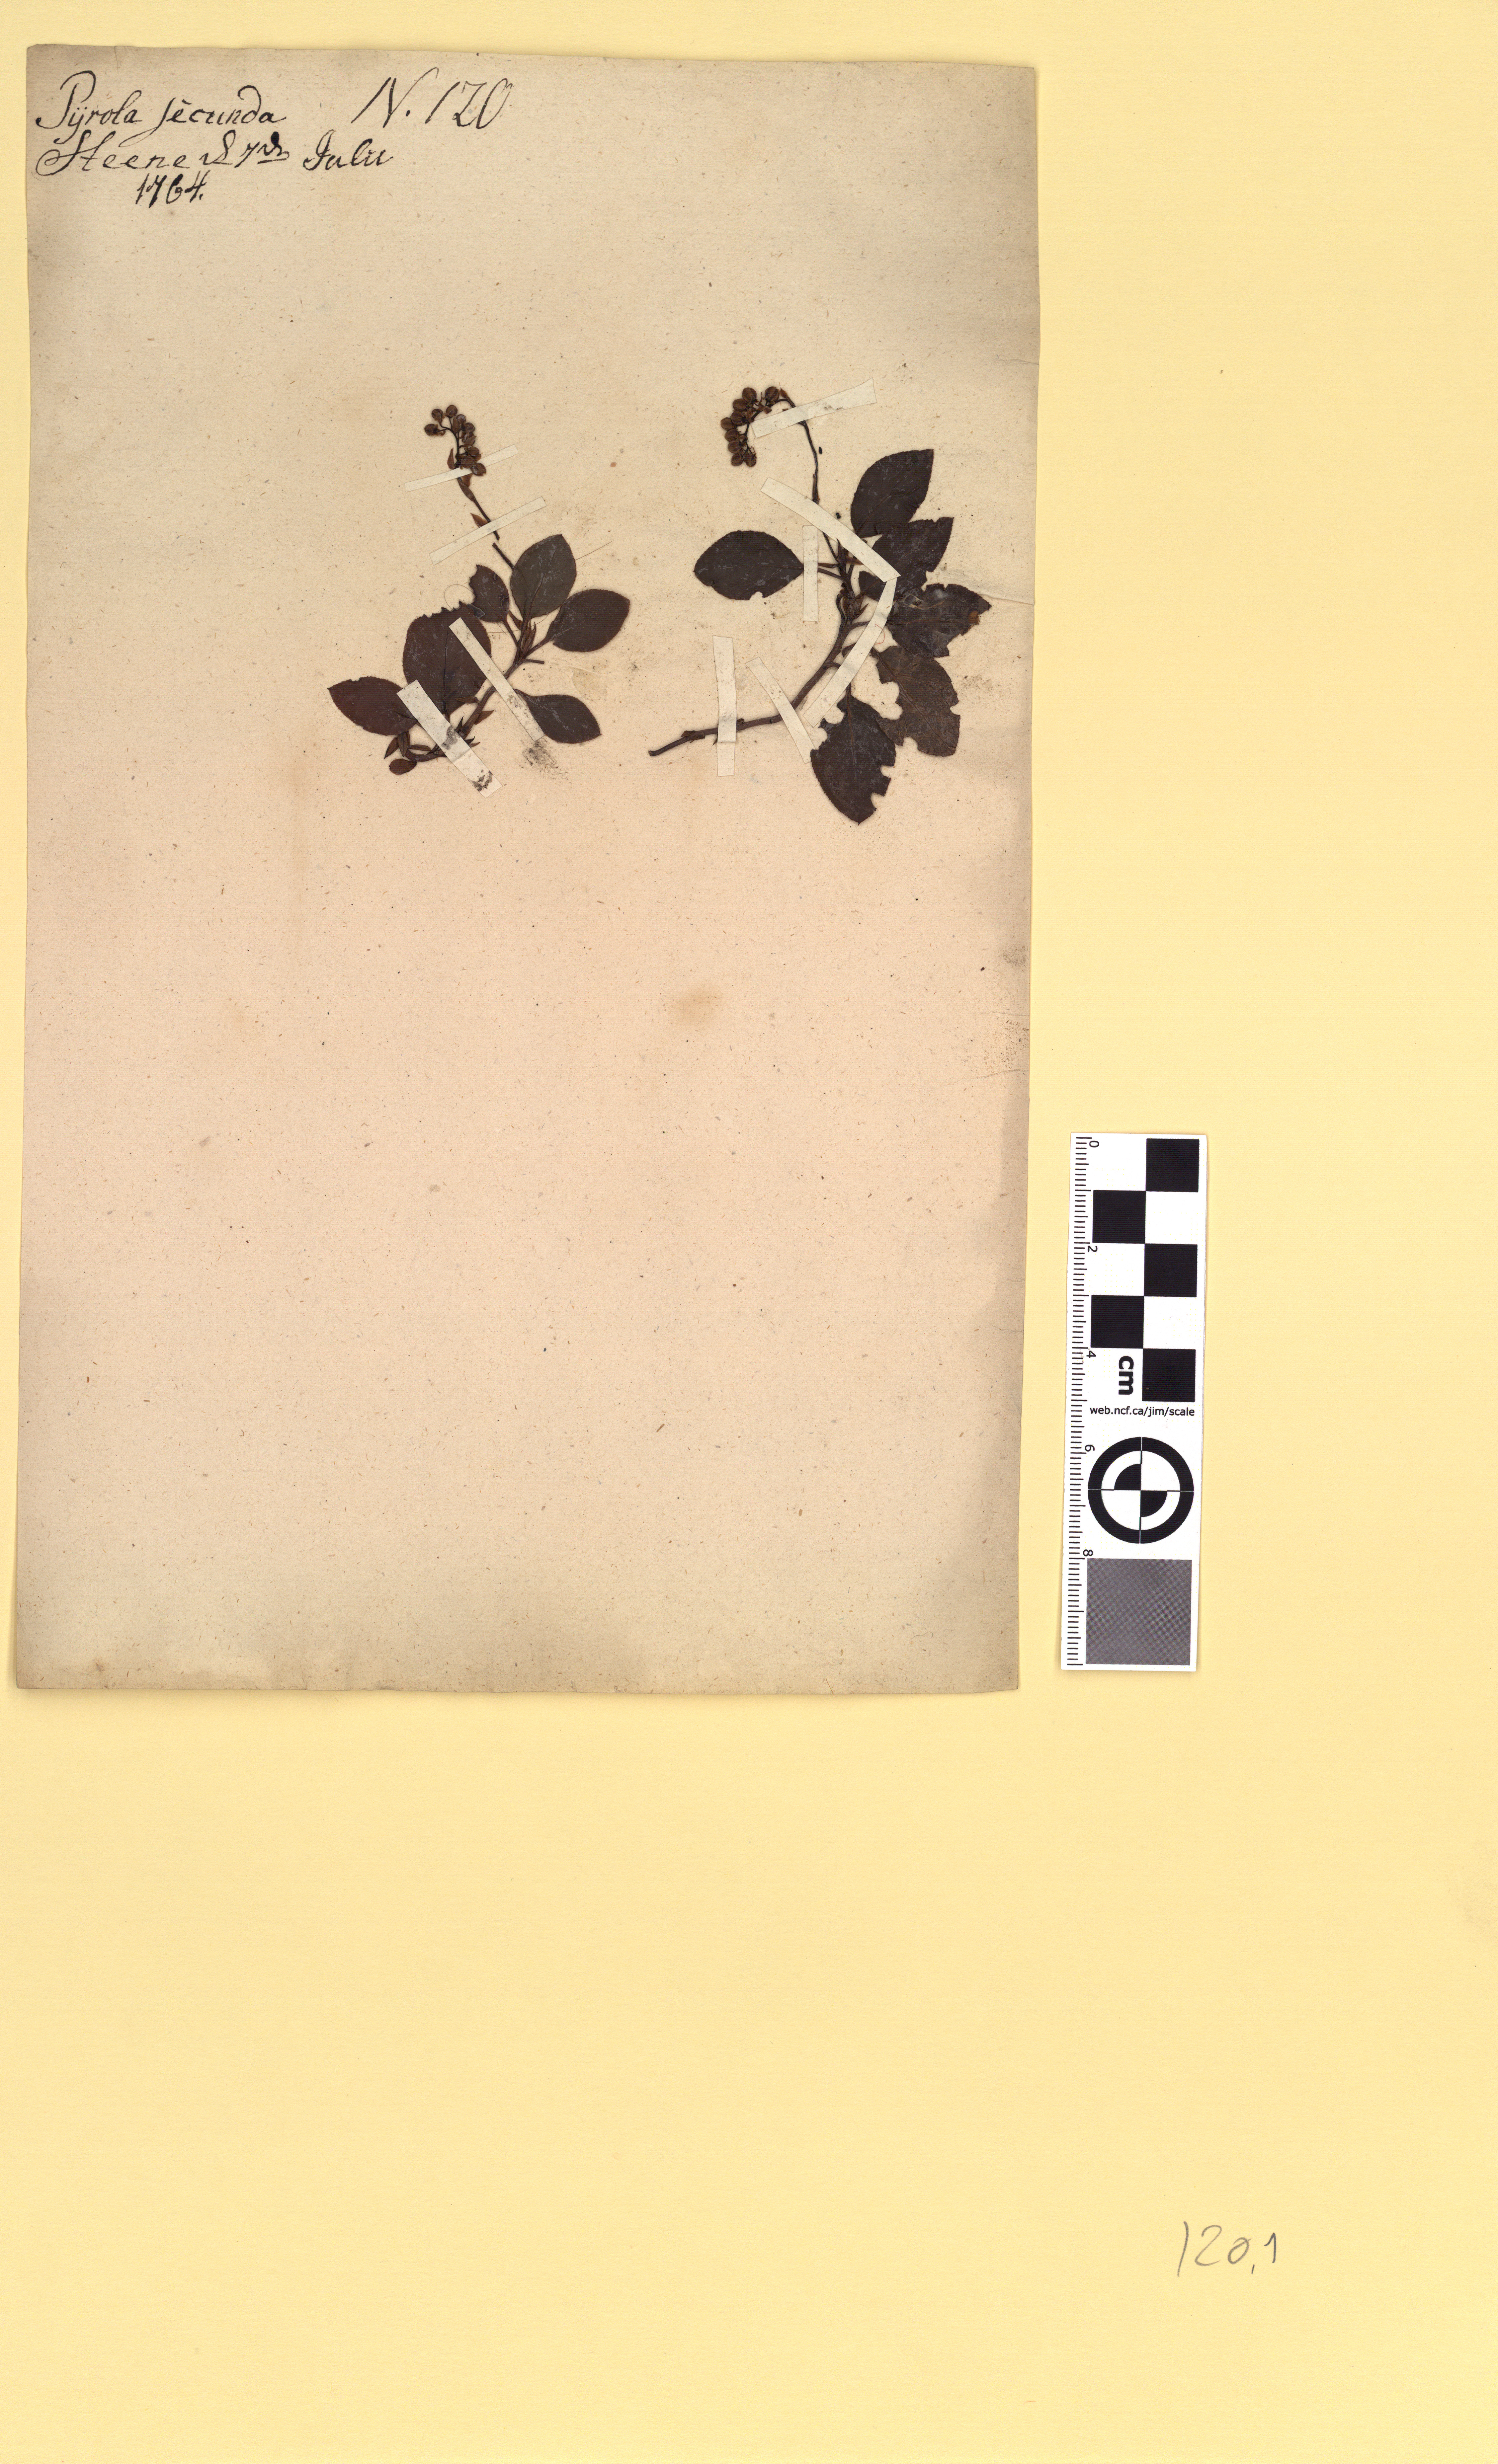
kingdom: Plantae
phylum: Tracheophyta
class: Magnoliopsida
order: Ericales
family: Ericaceae
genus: Orthilia
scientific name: Orthilia secunda
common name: One-sided orthilia
